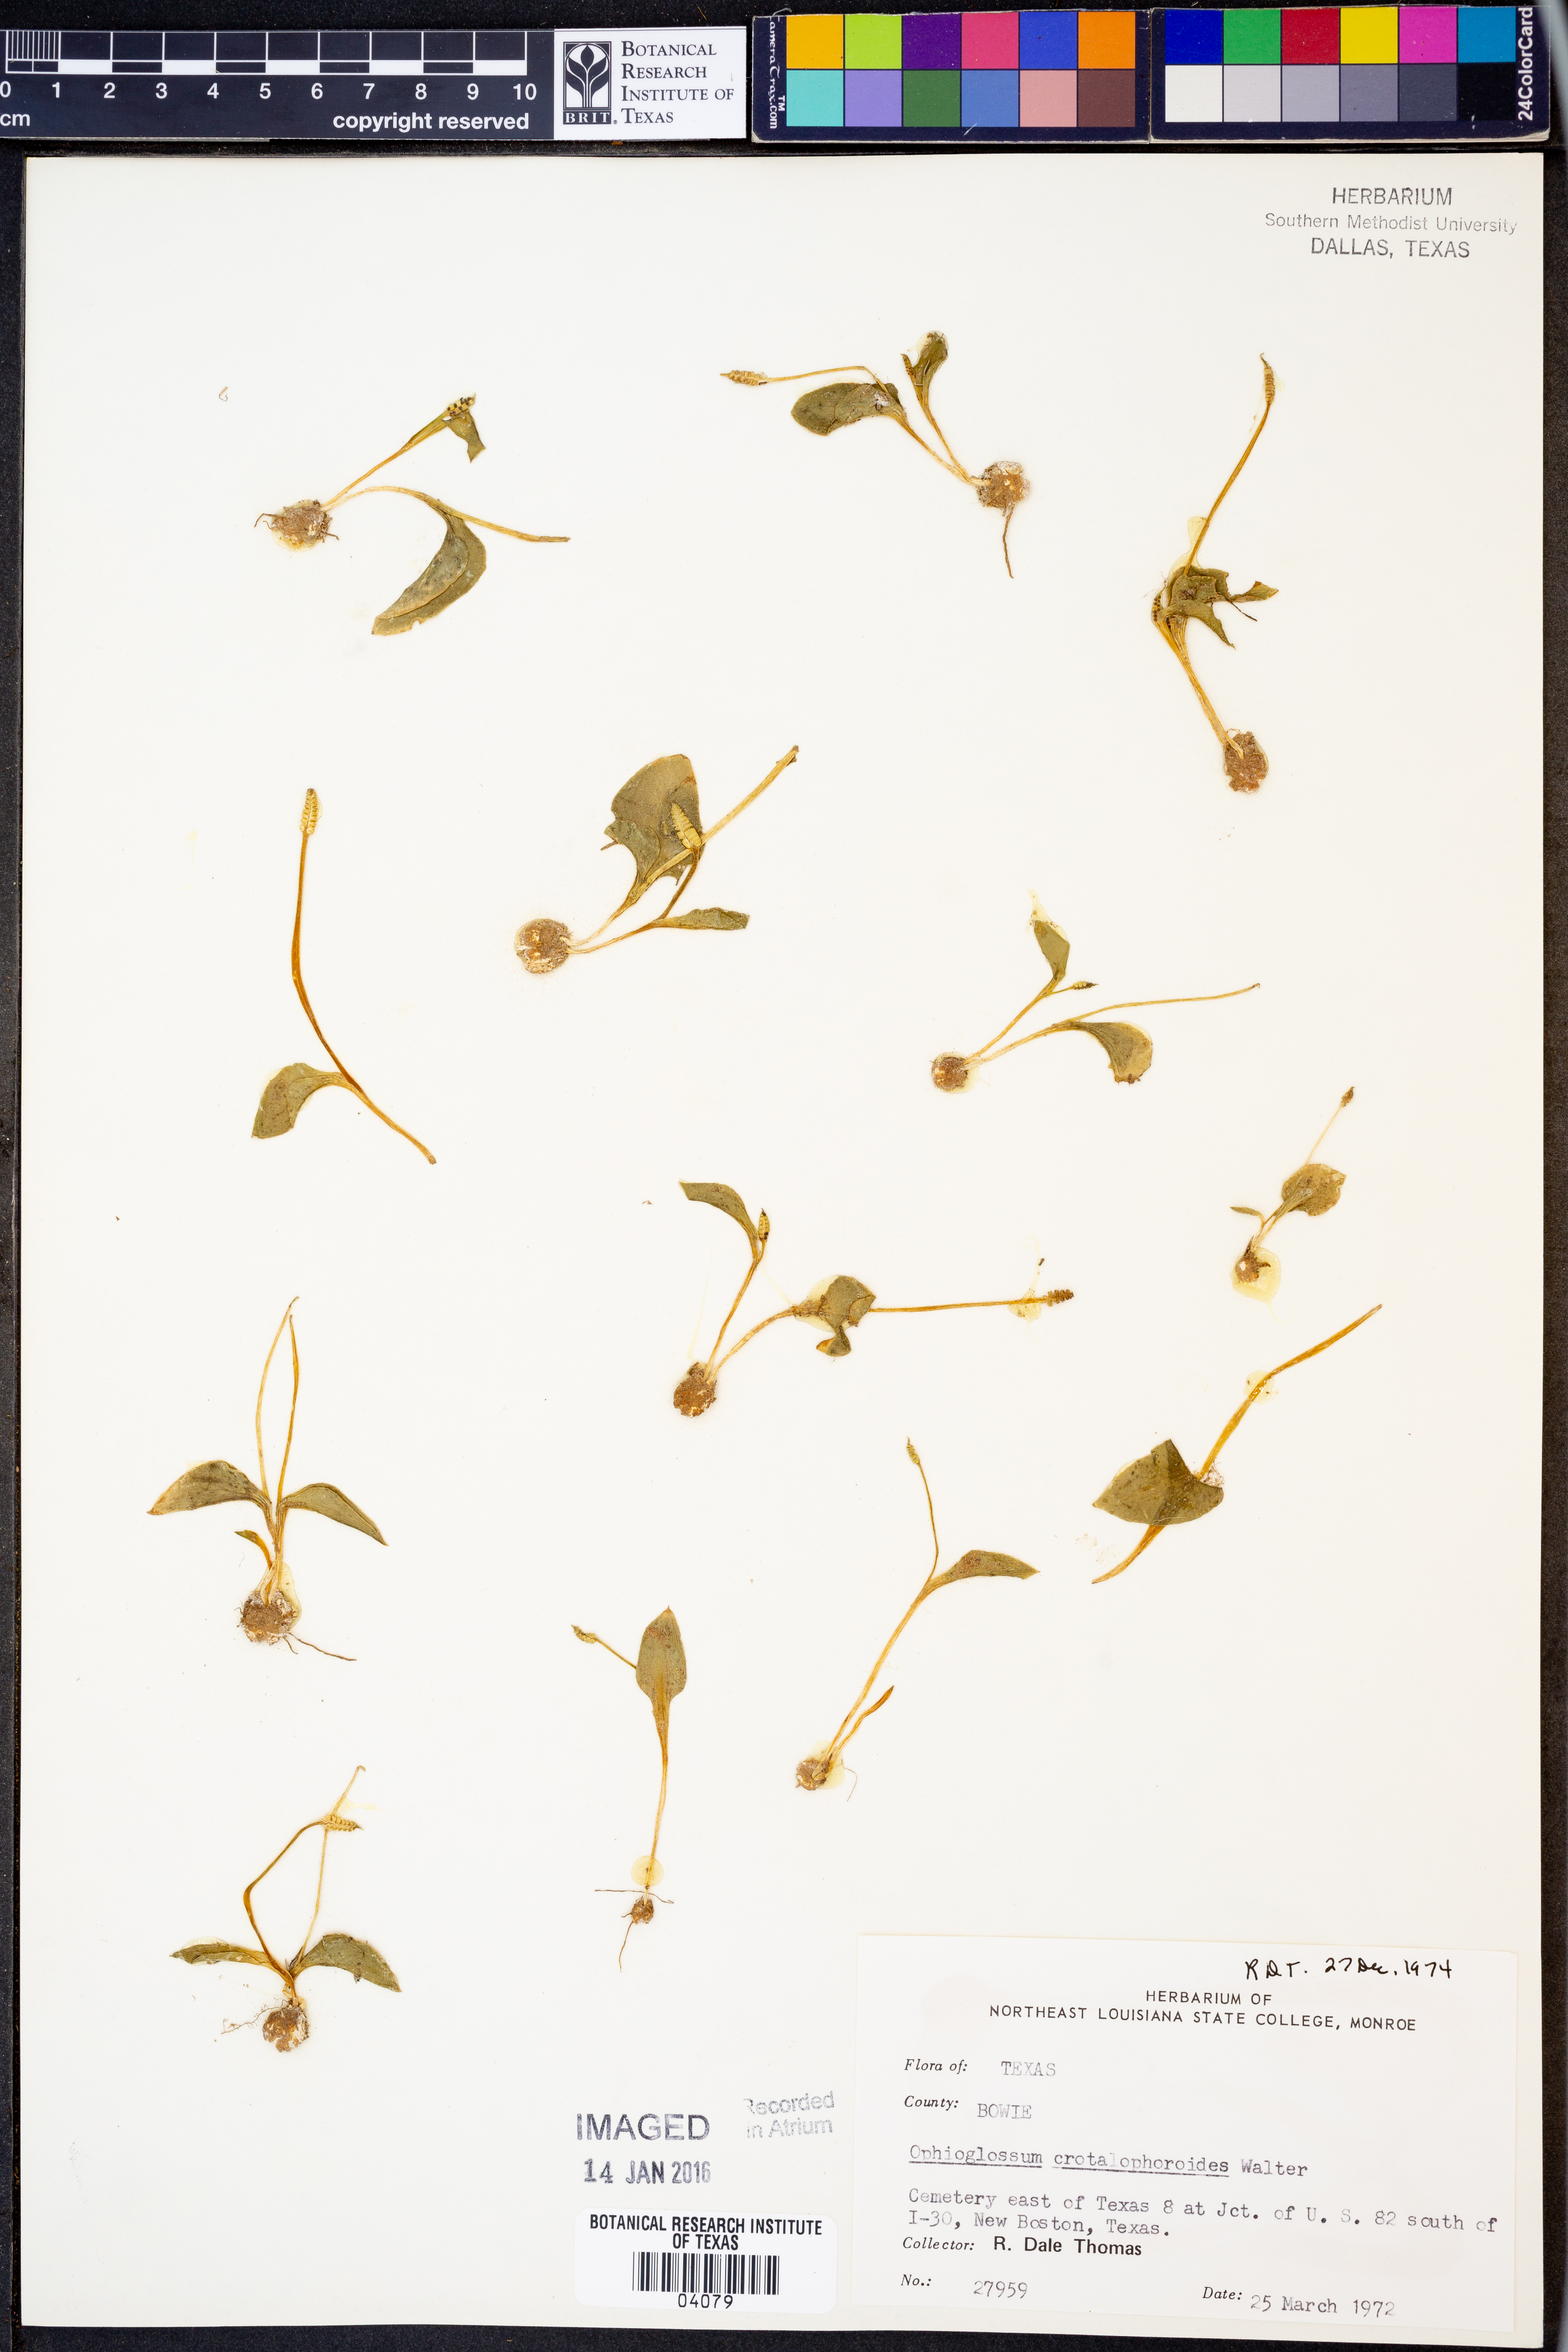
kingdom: Plantae
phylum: Tracheophyta
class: Polypodiopsida
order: Ophioglossales
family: Ophioglossaceae
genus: Ophioglossum
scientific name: Ophioglossum crotalophoroides
